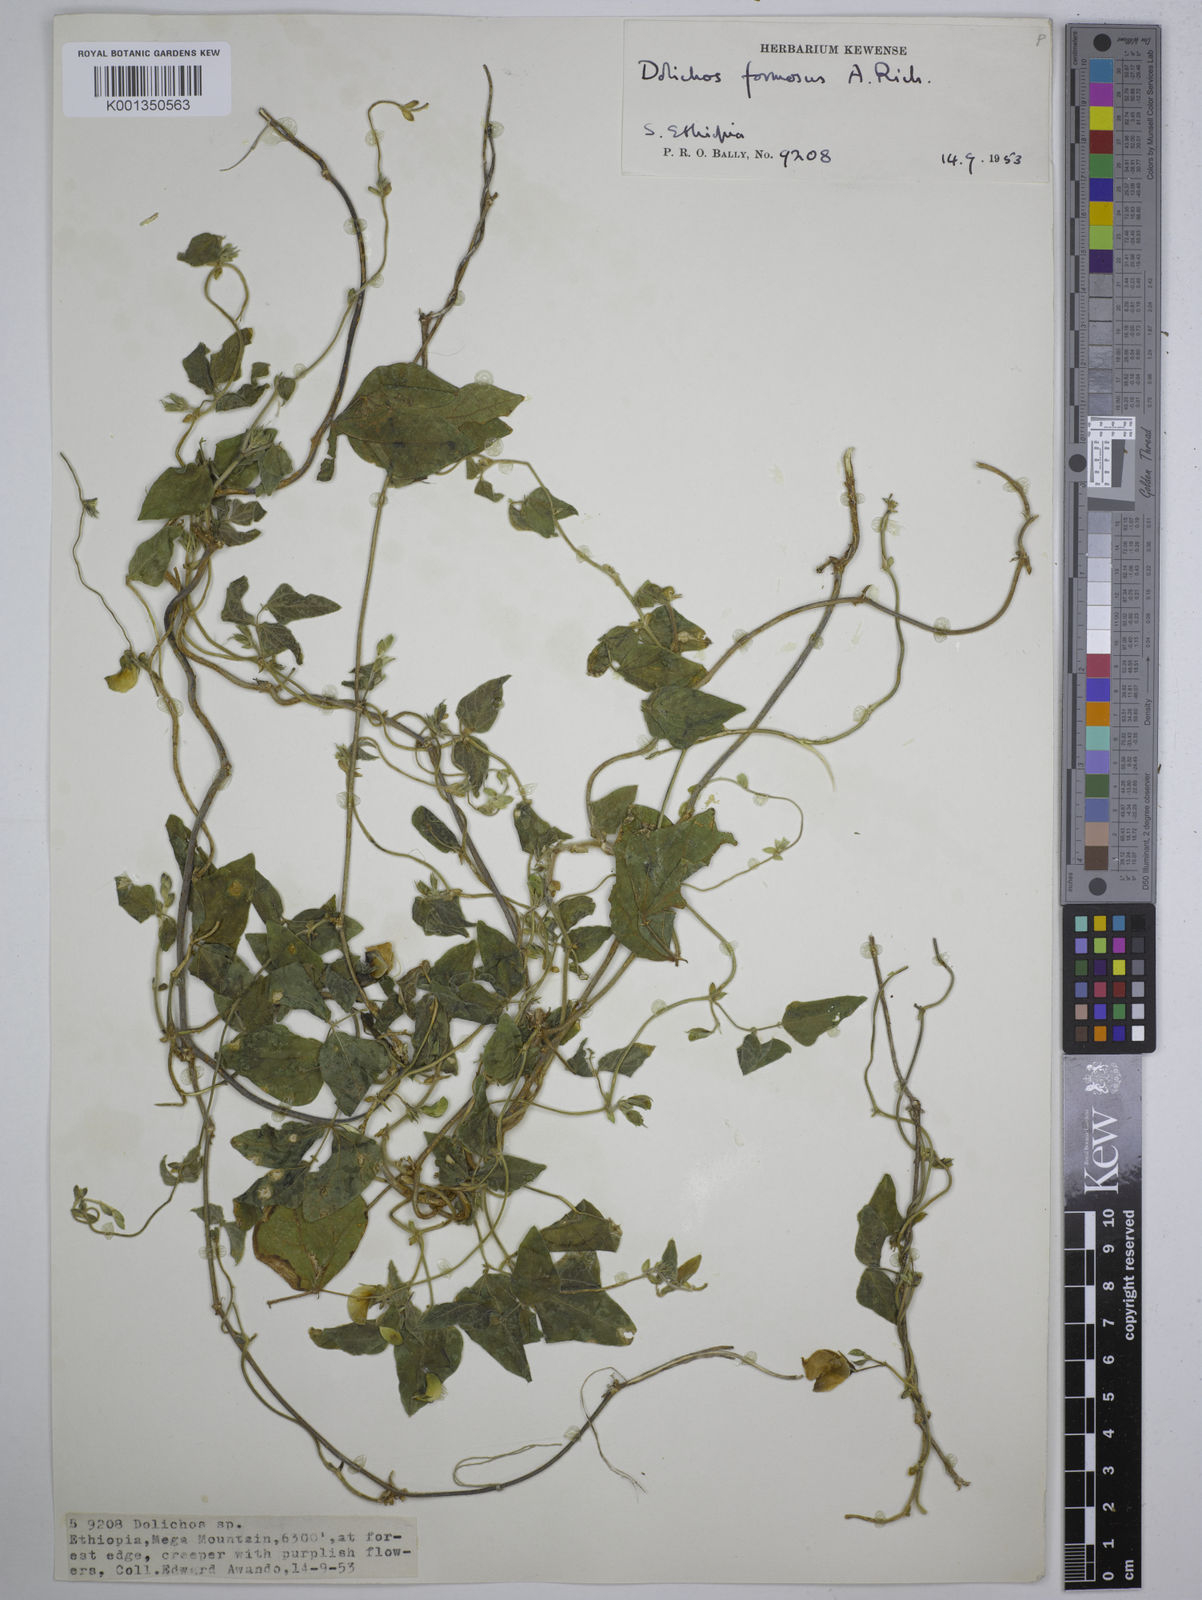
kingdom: Plantae
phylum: Tracheophyta
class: Magnoliopsida
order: Fabales
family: Fabaceae
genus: Dolichos
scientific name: Dolichos
